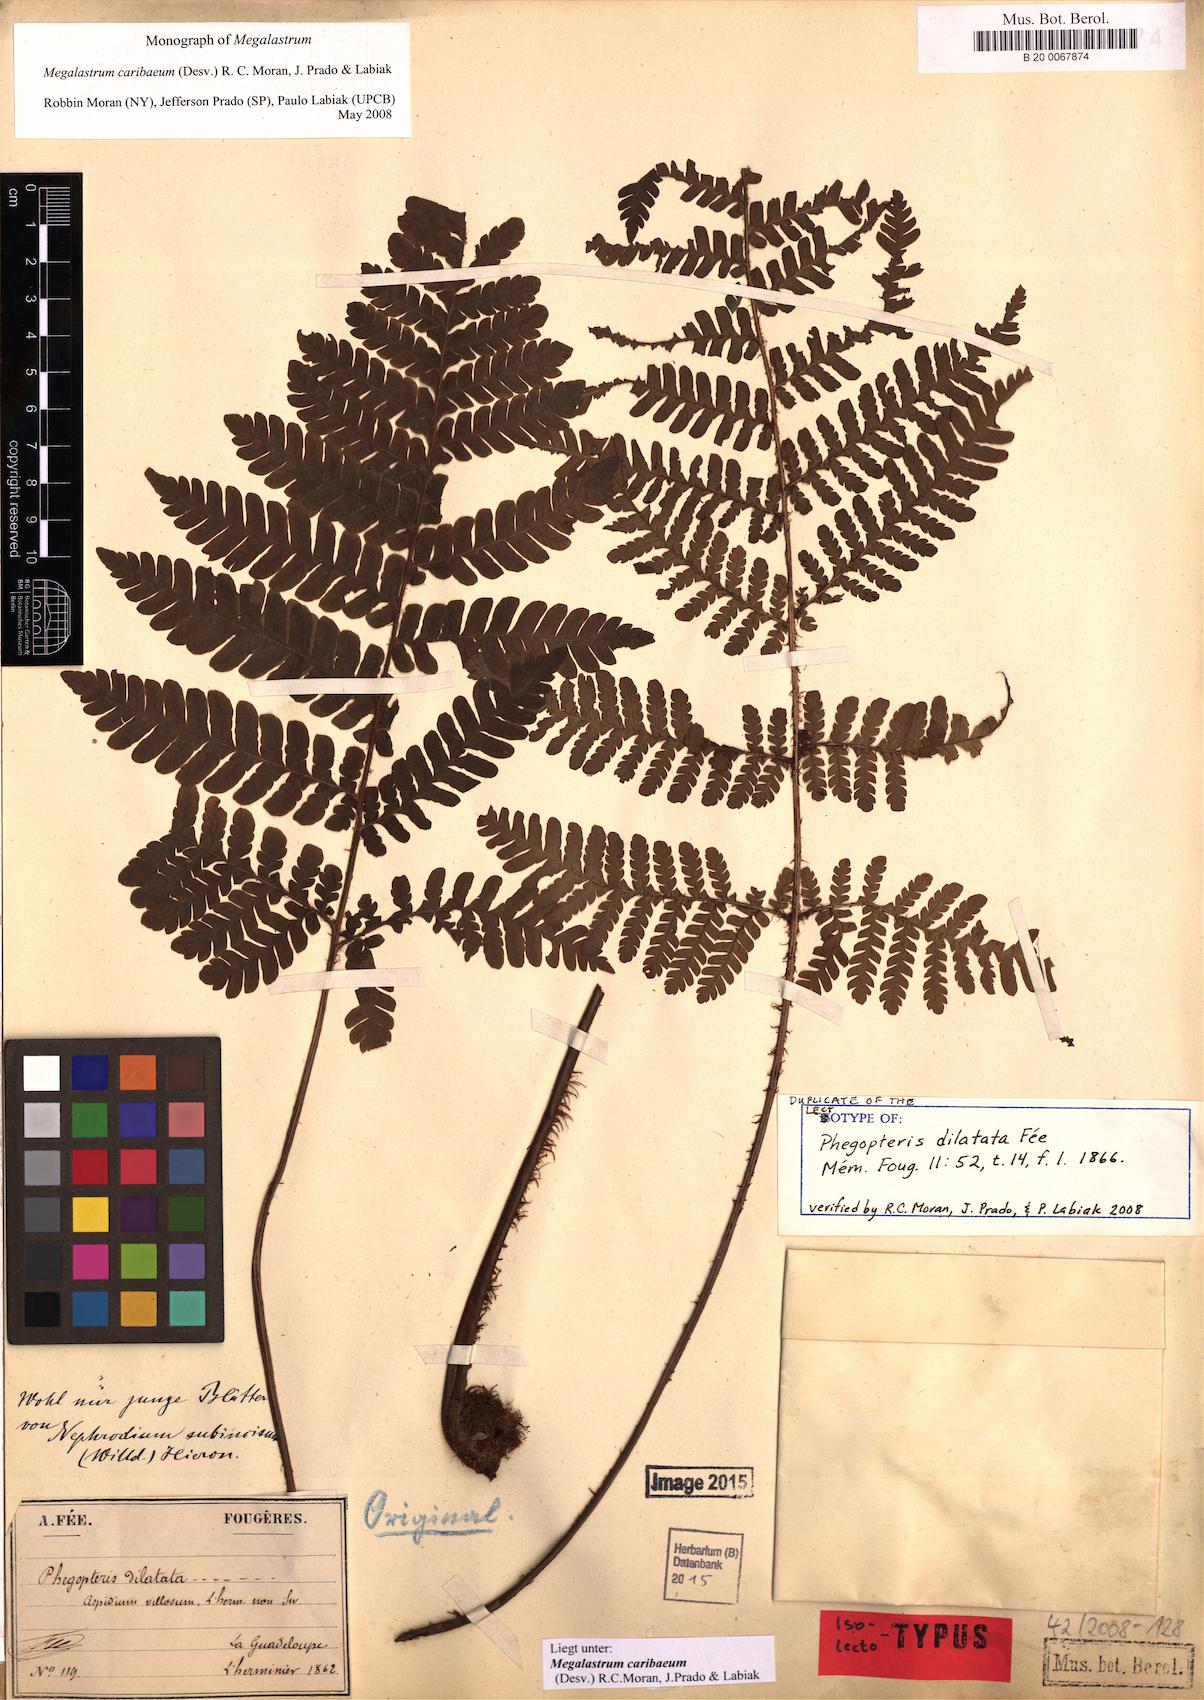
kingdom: Plantae
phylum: Tracheophyta
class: Polypodiopsida
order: Polypodiales
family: Dryopteridaceae
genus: Megalastrum
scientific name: Megalastrum caribaeum
